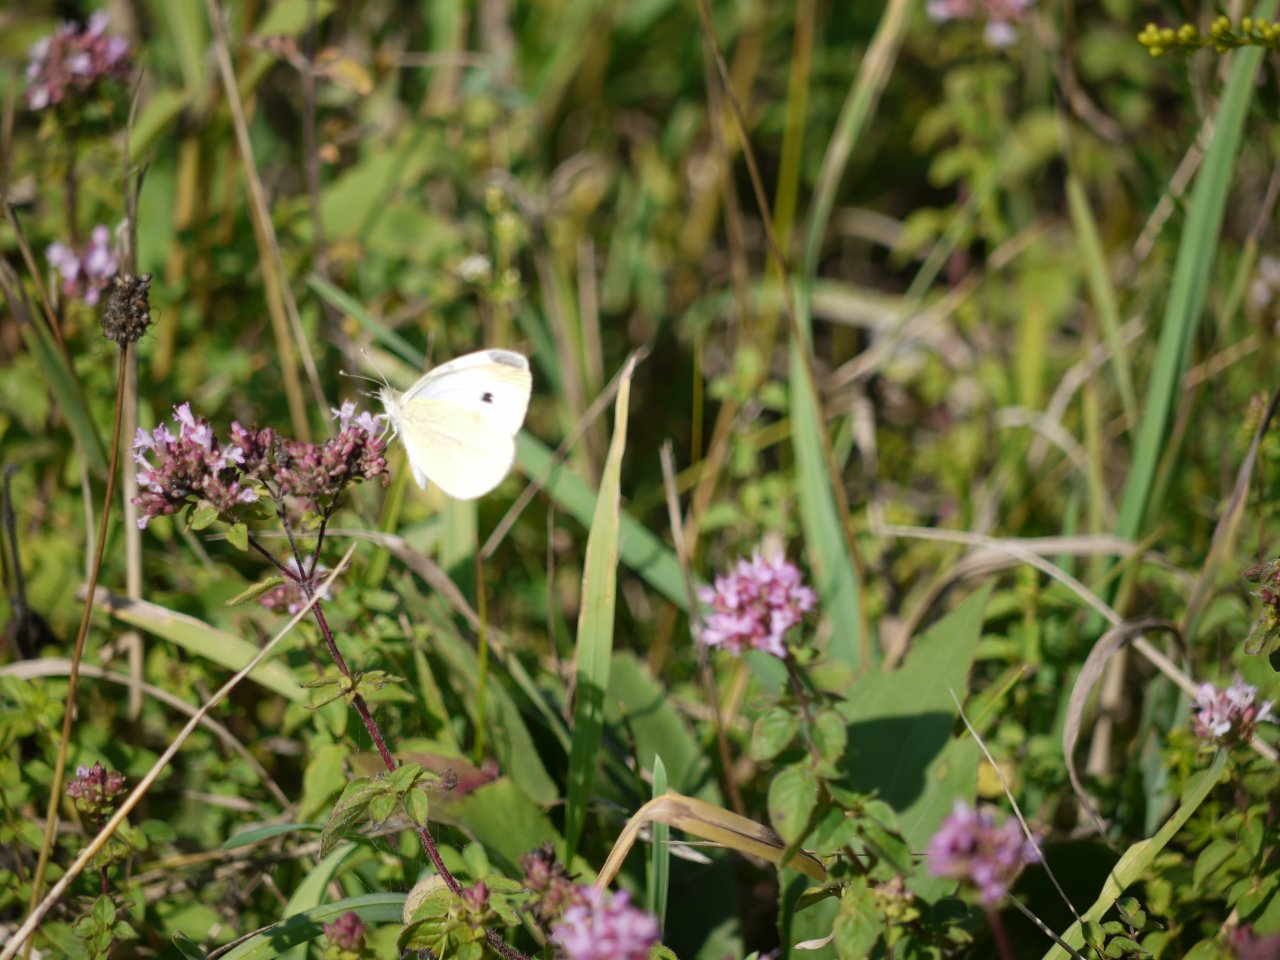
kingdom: Animalia
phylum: Arthropoda
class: Insecta
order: Lepidoptera
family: Pieridae
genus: Pieris
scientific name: Pieris rapae
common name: Cabbage White
